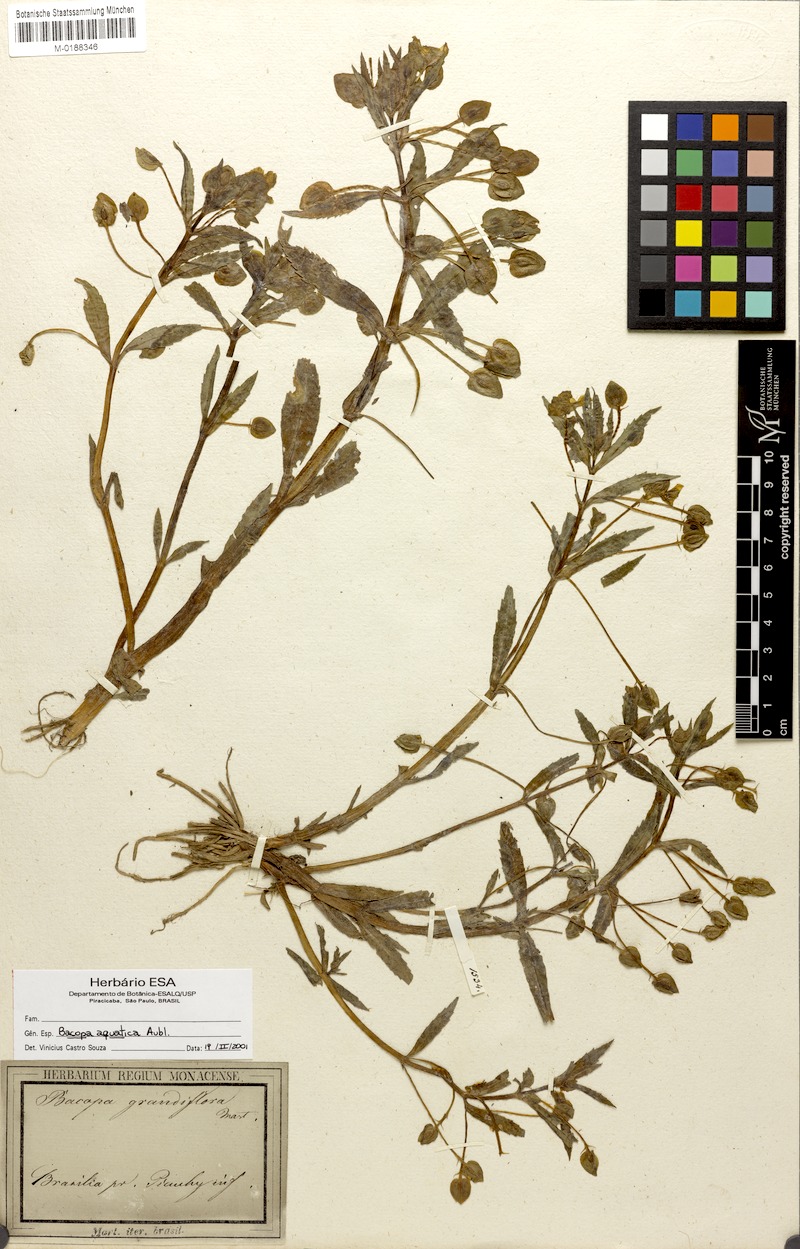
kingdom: Plantae
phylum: Tracheophyta
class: Magnoliopsida
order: Lamiales
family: Plantaginaceae
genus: Bacopa
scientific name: Bacopa aquatica
